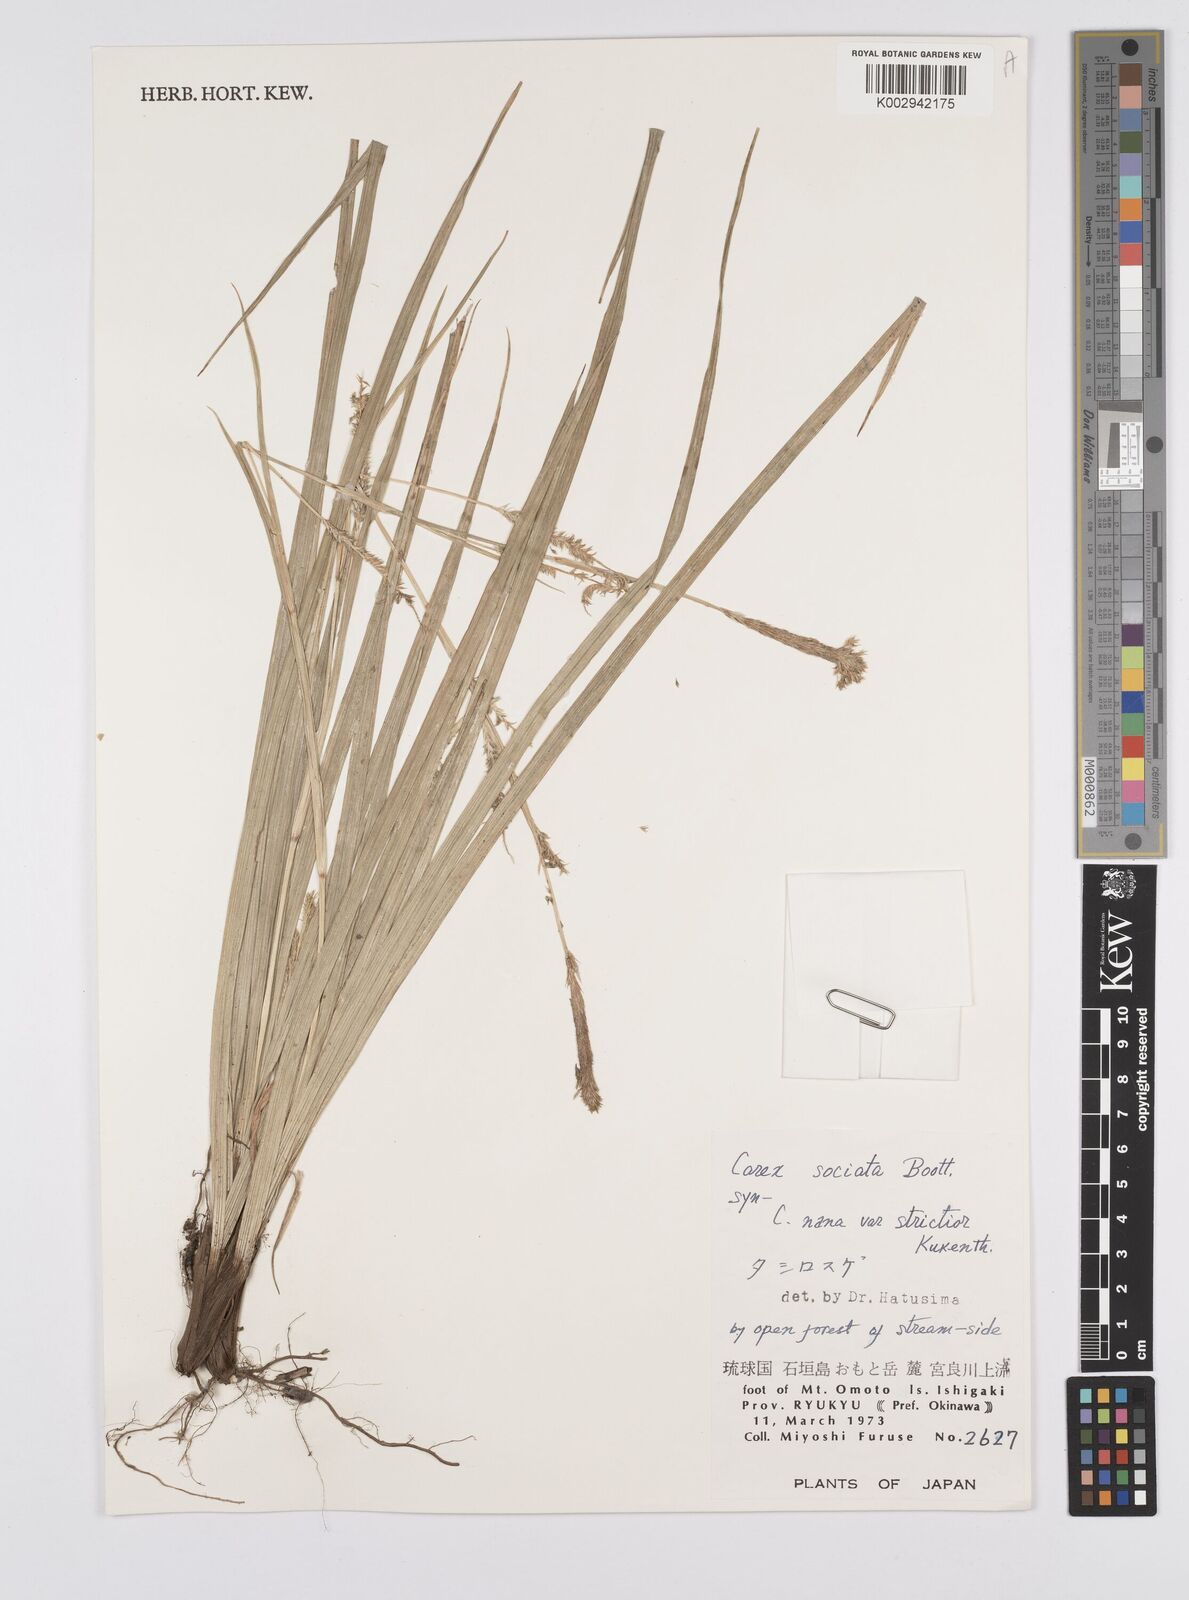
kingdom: Plantae
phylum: Tracheophyta
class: Liliopsida
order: Poales
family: Cyperaceae
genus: Carex
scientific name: Carex chinensis
